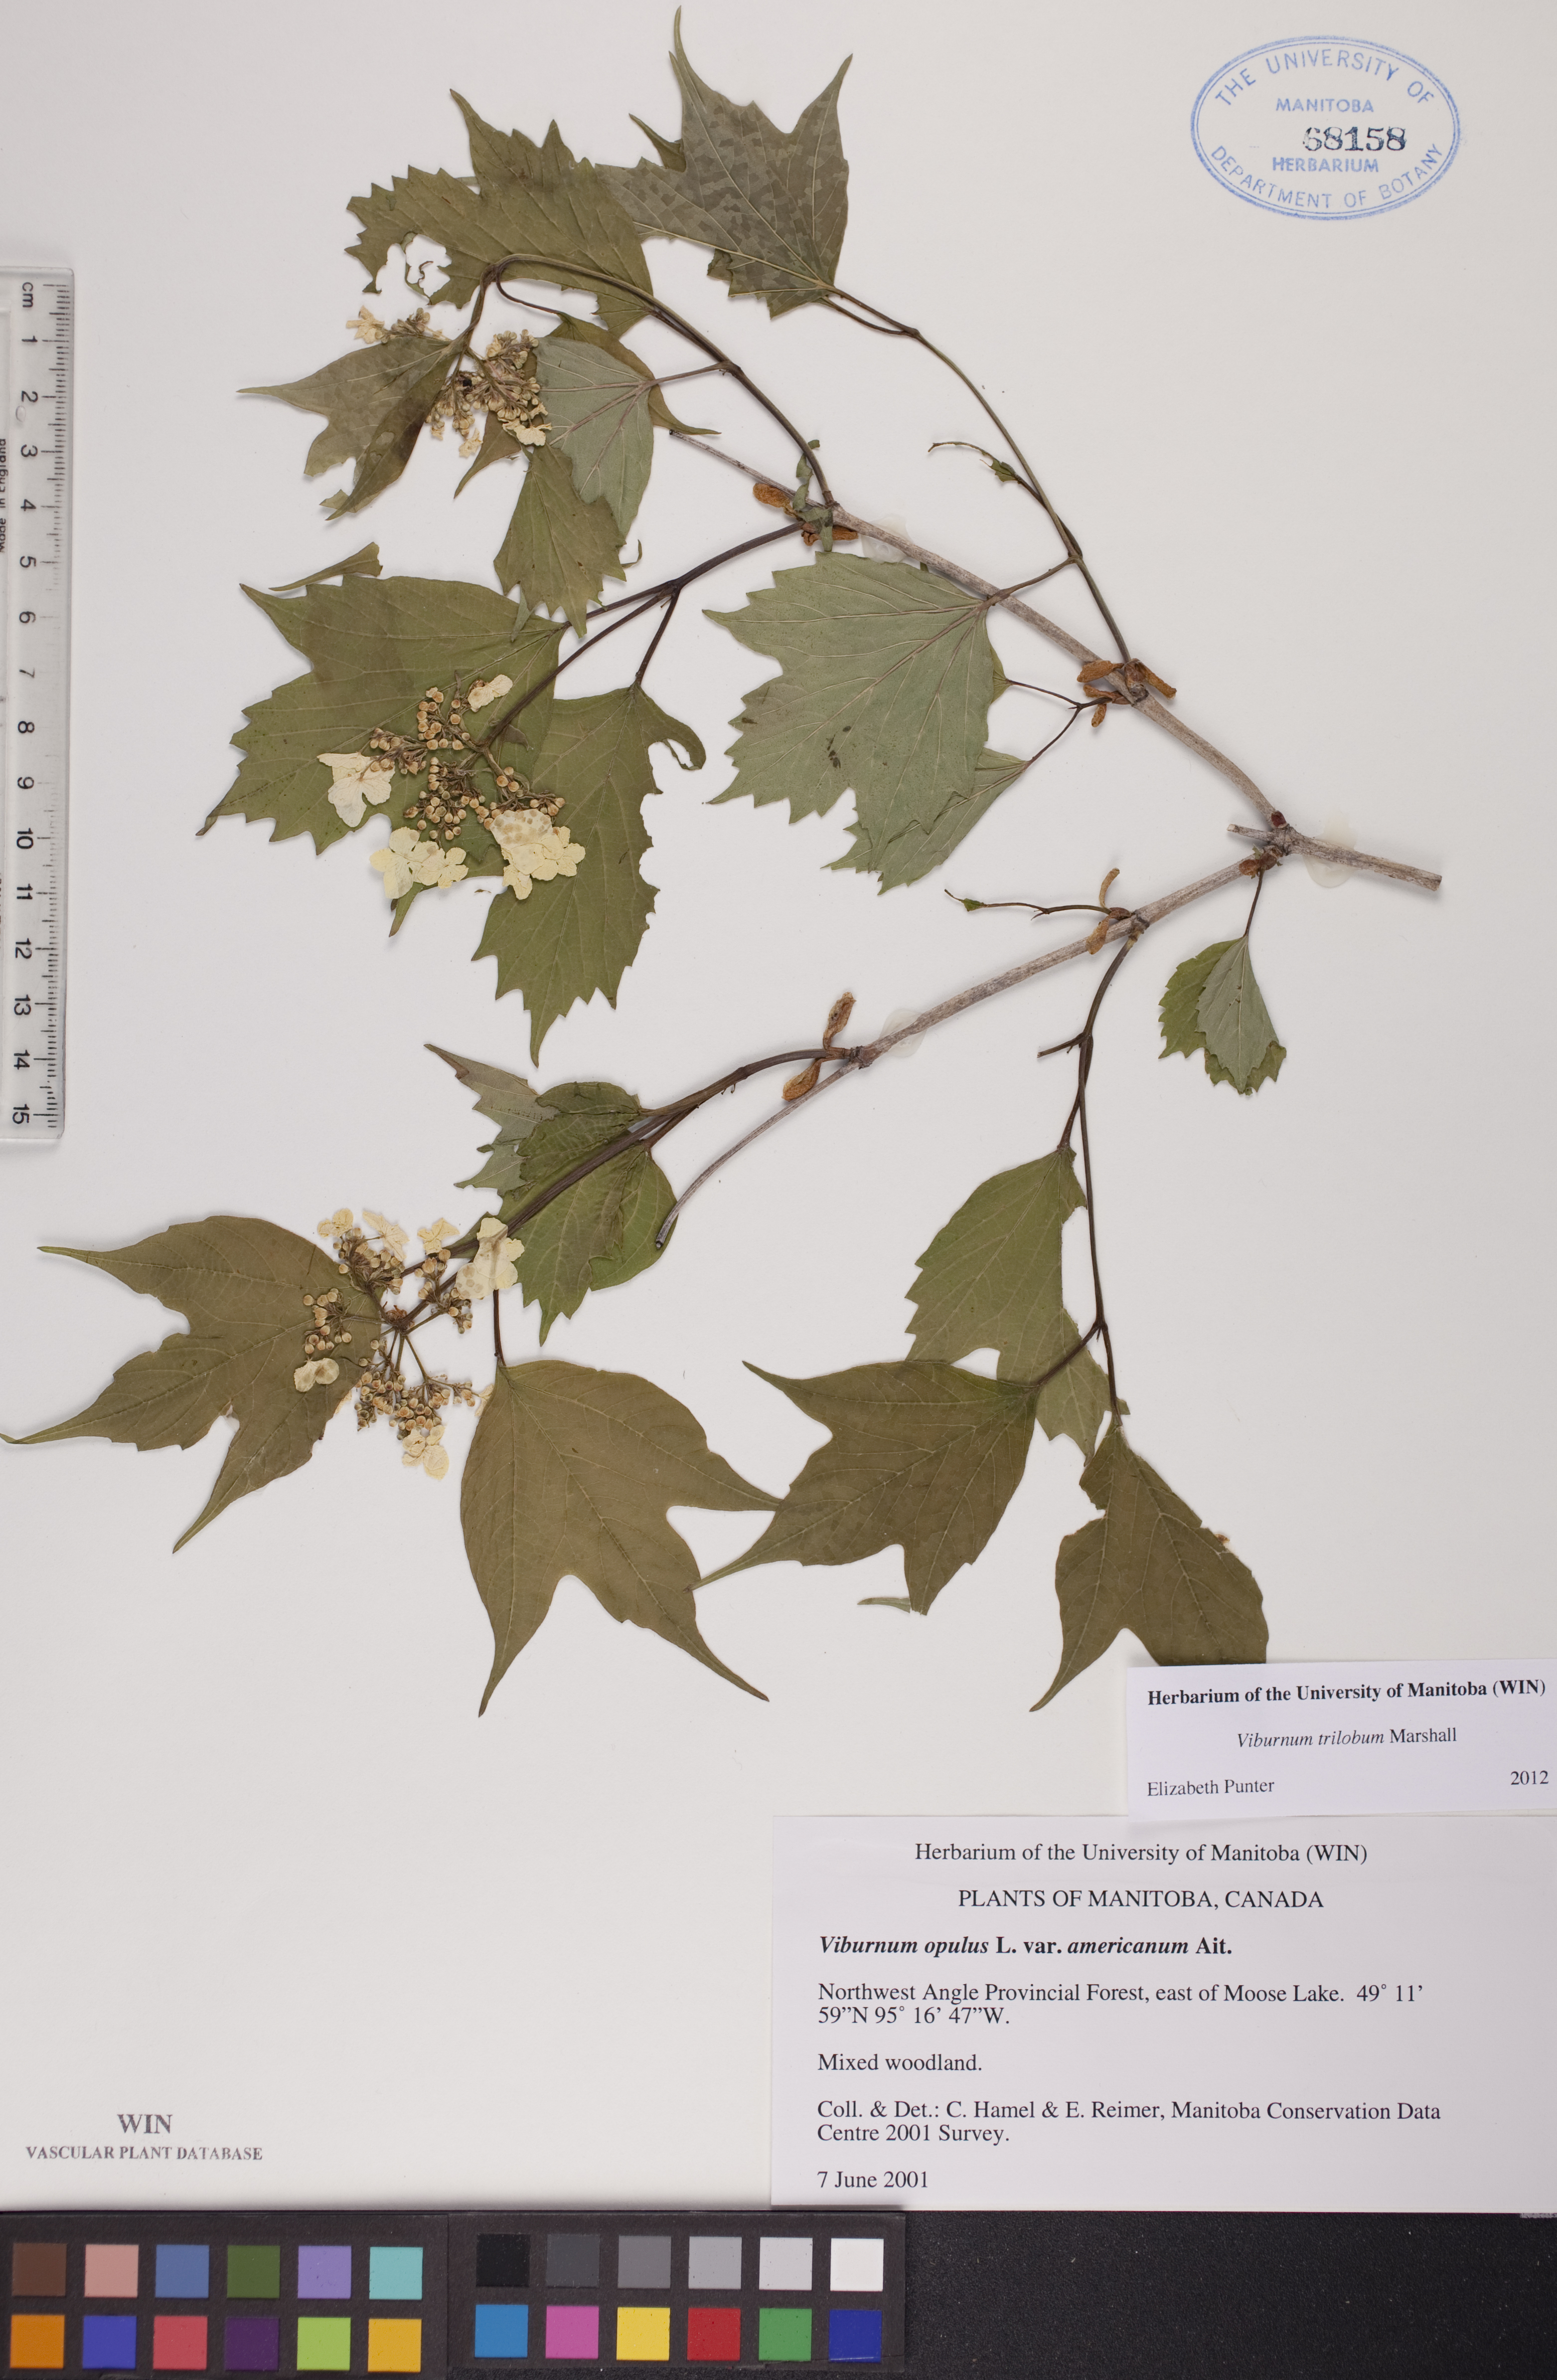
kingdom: Plantae
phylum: Tracheophyta
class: Magnoliopsida
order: Dipsacales
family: Viburnaceae
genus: Viburnum
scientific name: Viburnum trilobum
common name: American cranberrybush
